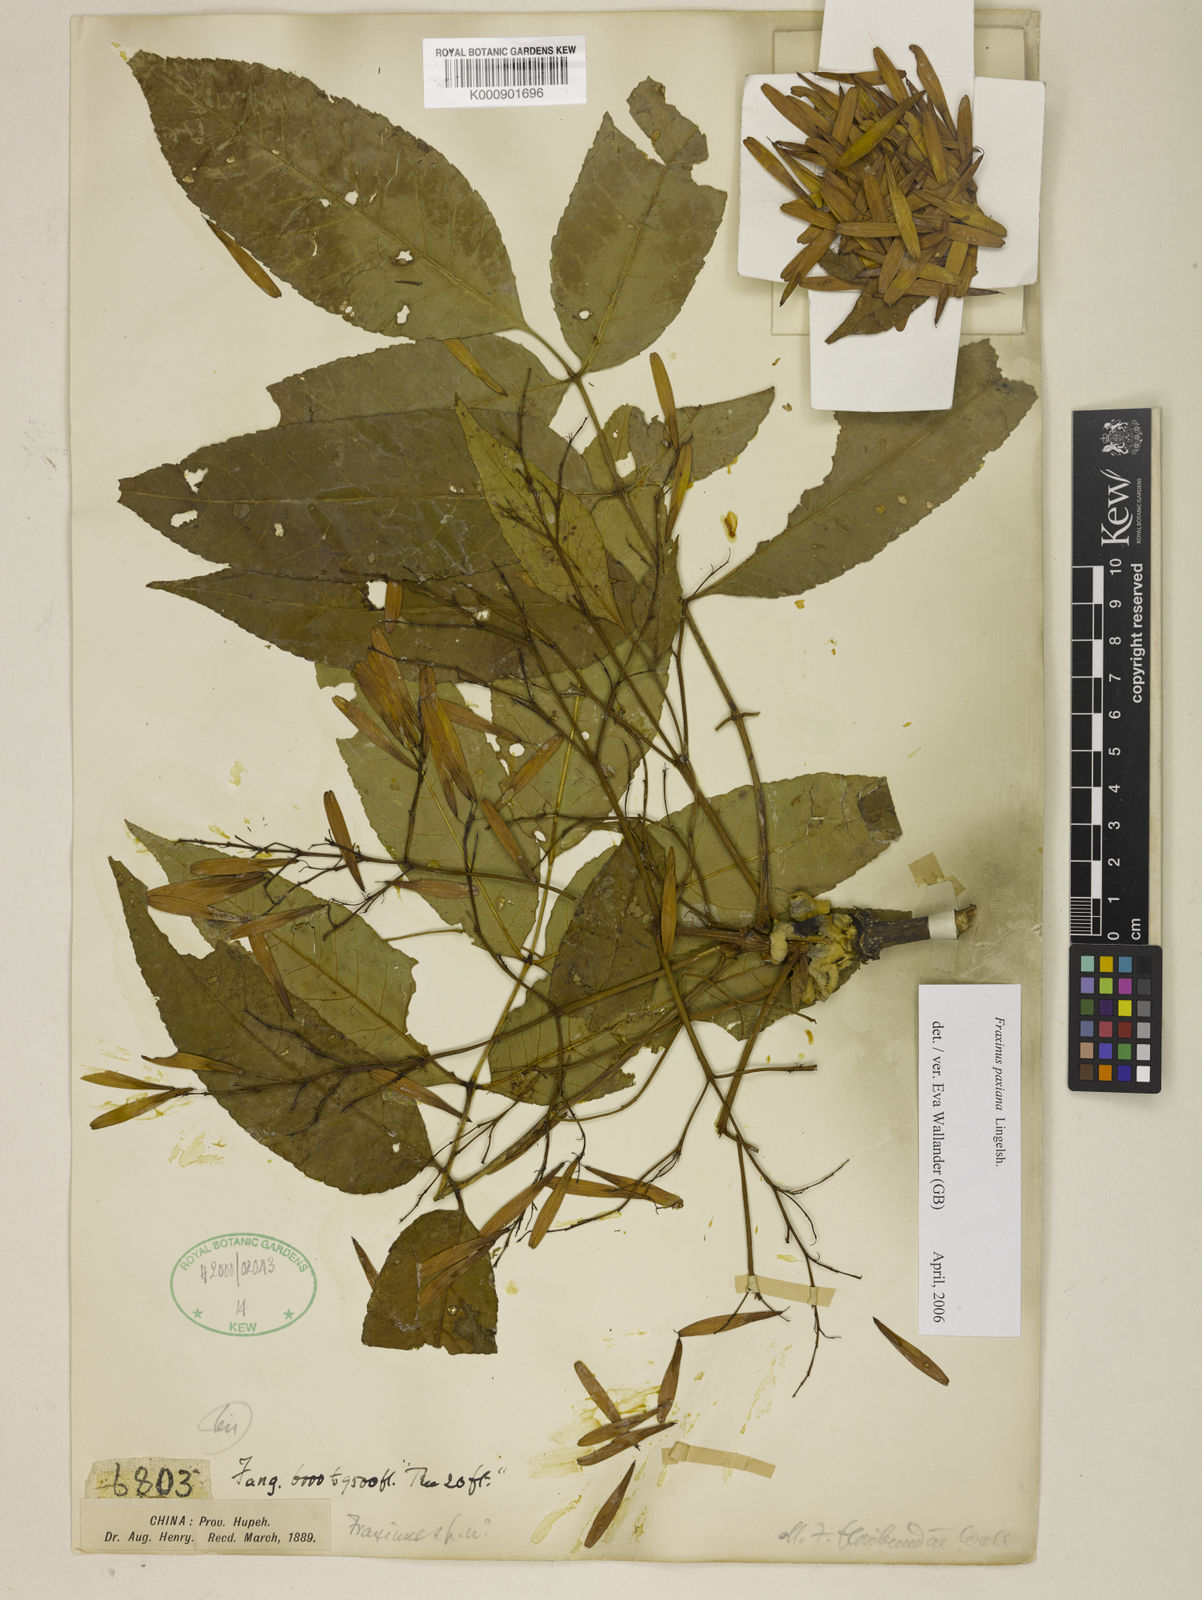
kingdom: Plantae
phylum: Tracheophyta
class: Magnoliopsida
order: Lamiales
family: Oleaceae
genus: Fraxinus
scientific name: Fraxinus paxiana
